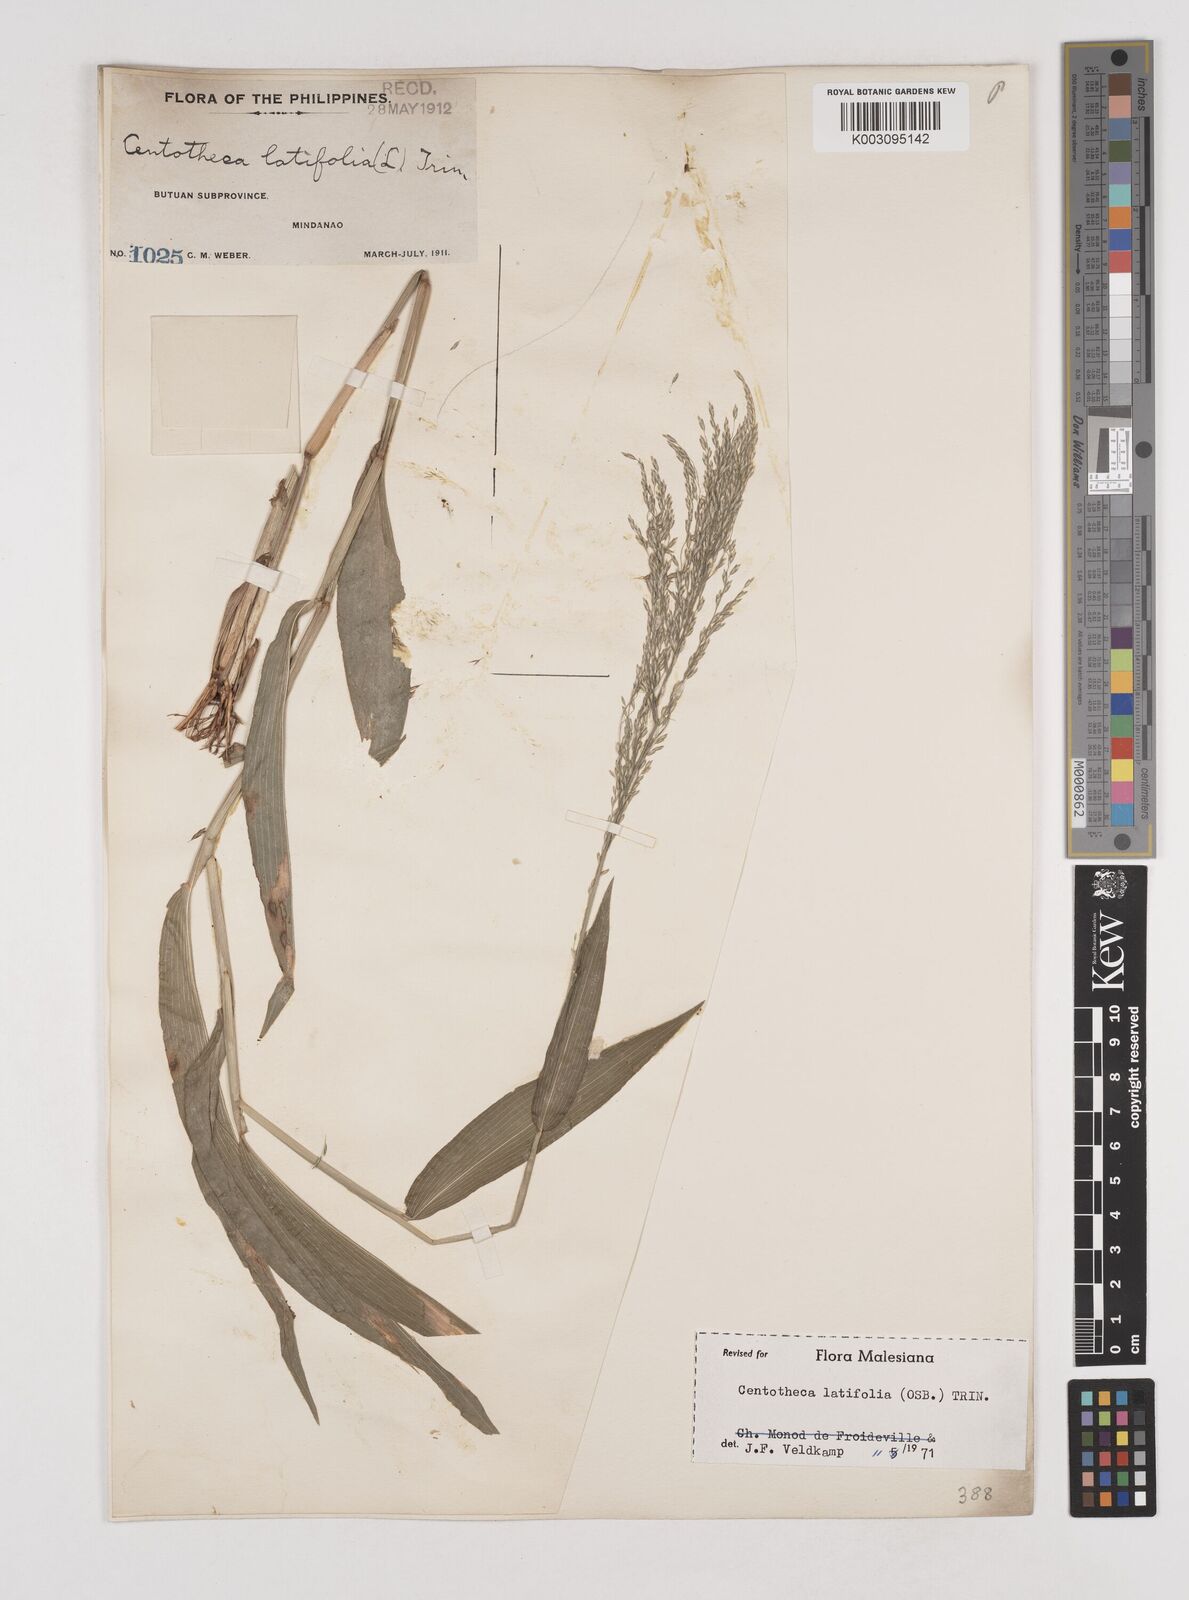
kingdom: Plantae
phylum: Tracheophyta
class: Liliopsida
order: Poales
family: Poaceae
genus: Centotheca
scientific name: Centotheca lappacea
